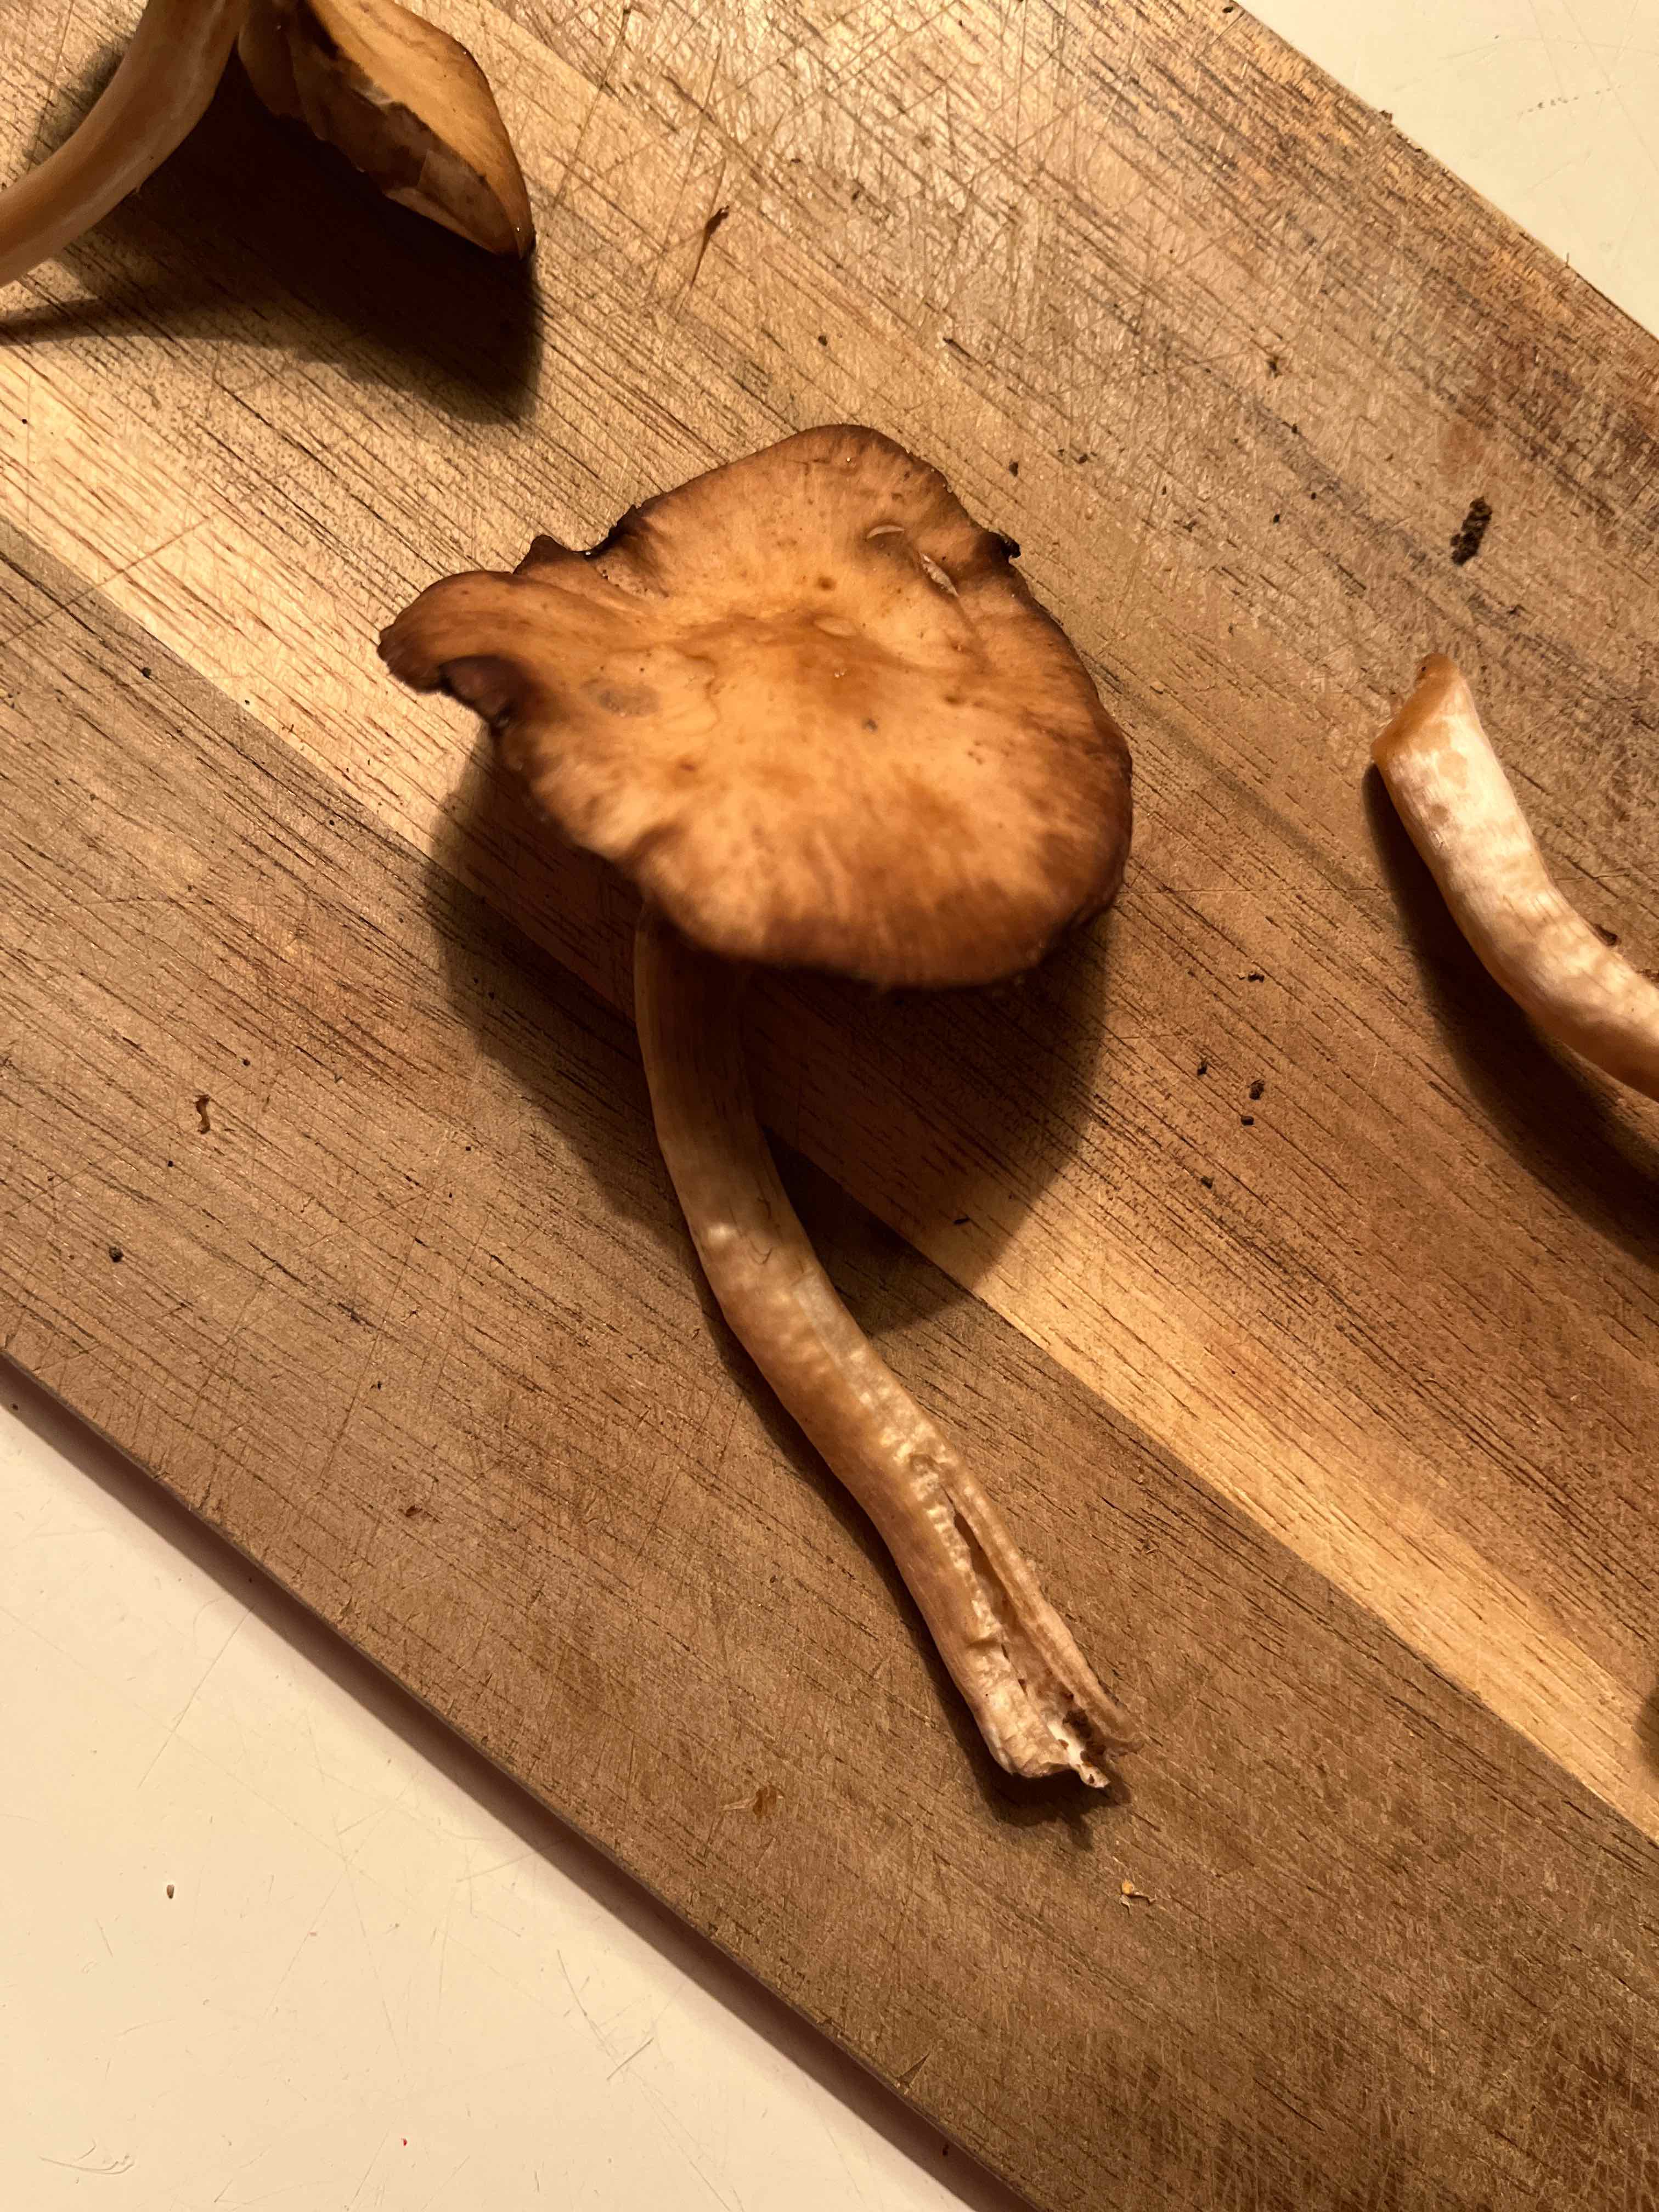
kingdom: Fungi
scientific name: Fungi
